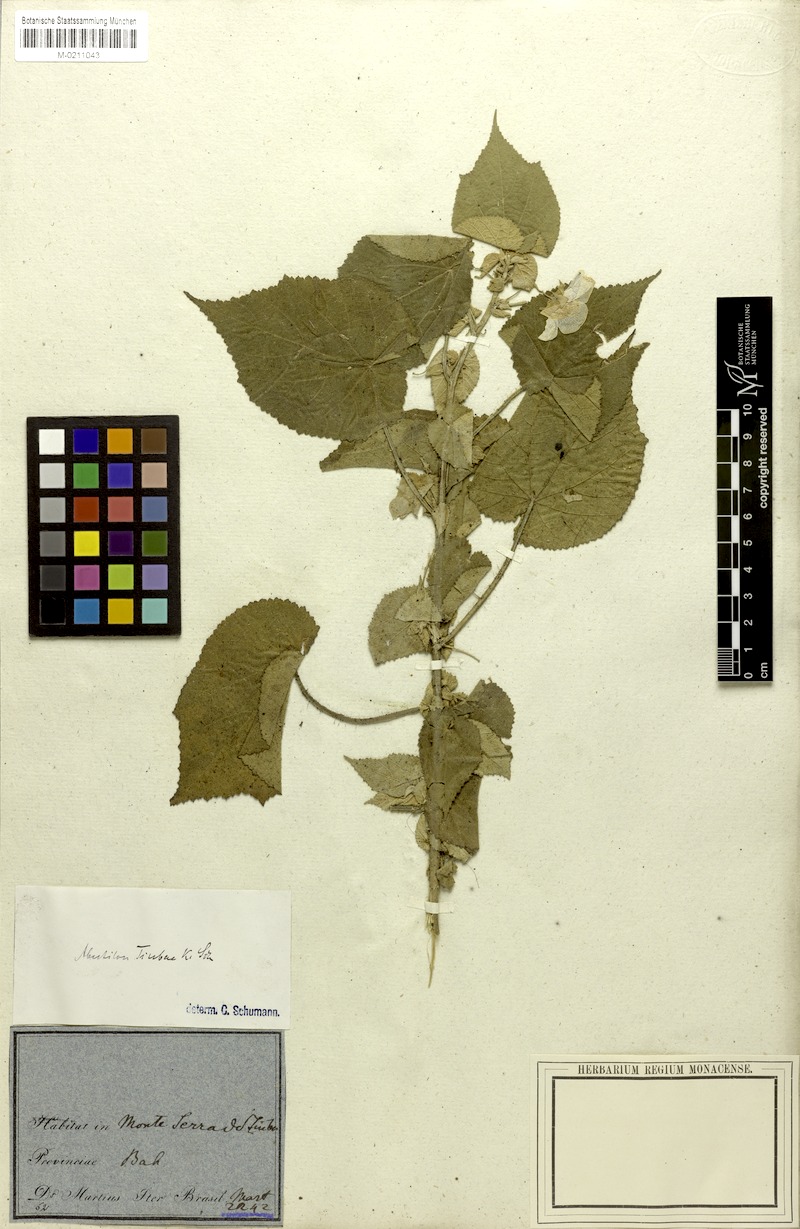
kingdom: Plantae
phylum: Tracheophyta
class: Magnoliopsida
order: Malvales
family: Malvaceae
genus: Herissantia
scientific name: Herissantia tiubae
